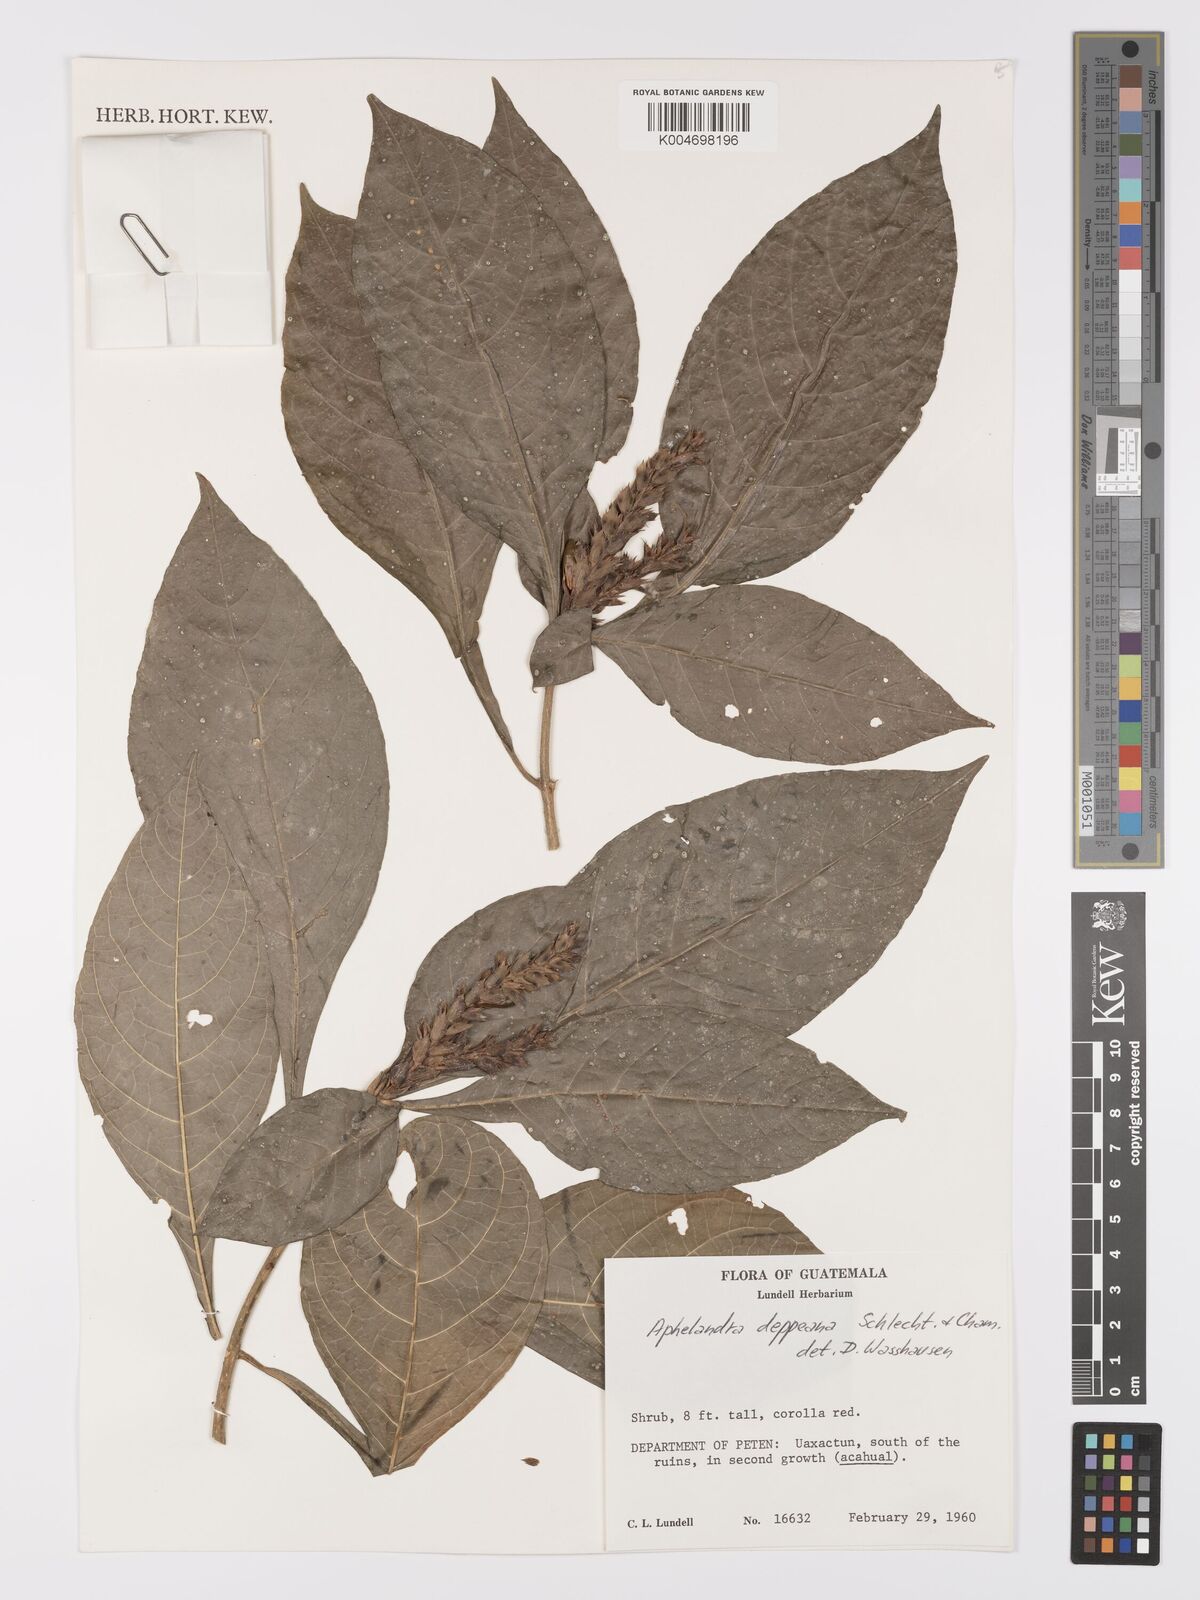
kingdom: Plantae
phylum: Tracheophyta
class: Magnoliopsida
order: Lamiales
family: Acanthaceae
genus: Aphelandra
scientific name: Aphelandra scabra
